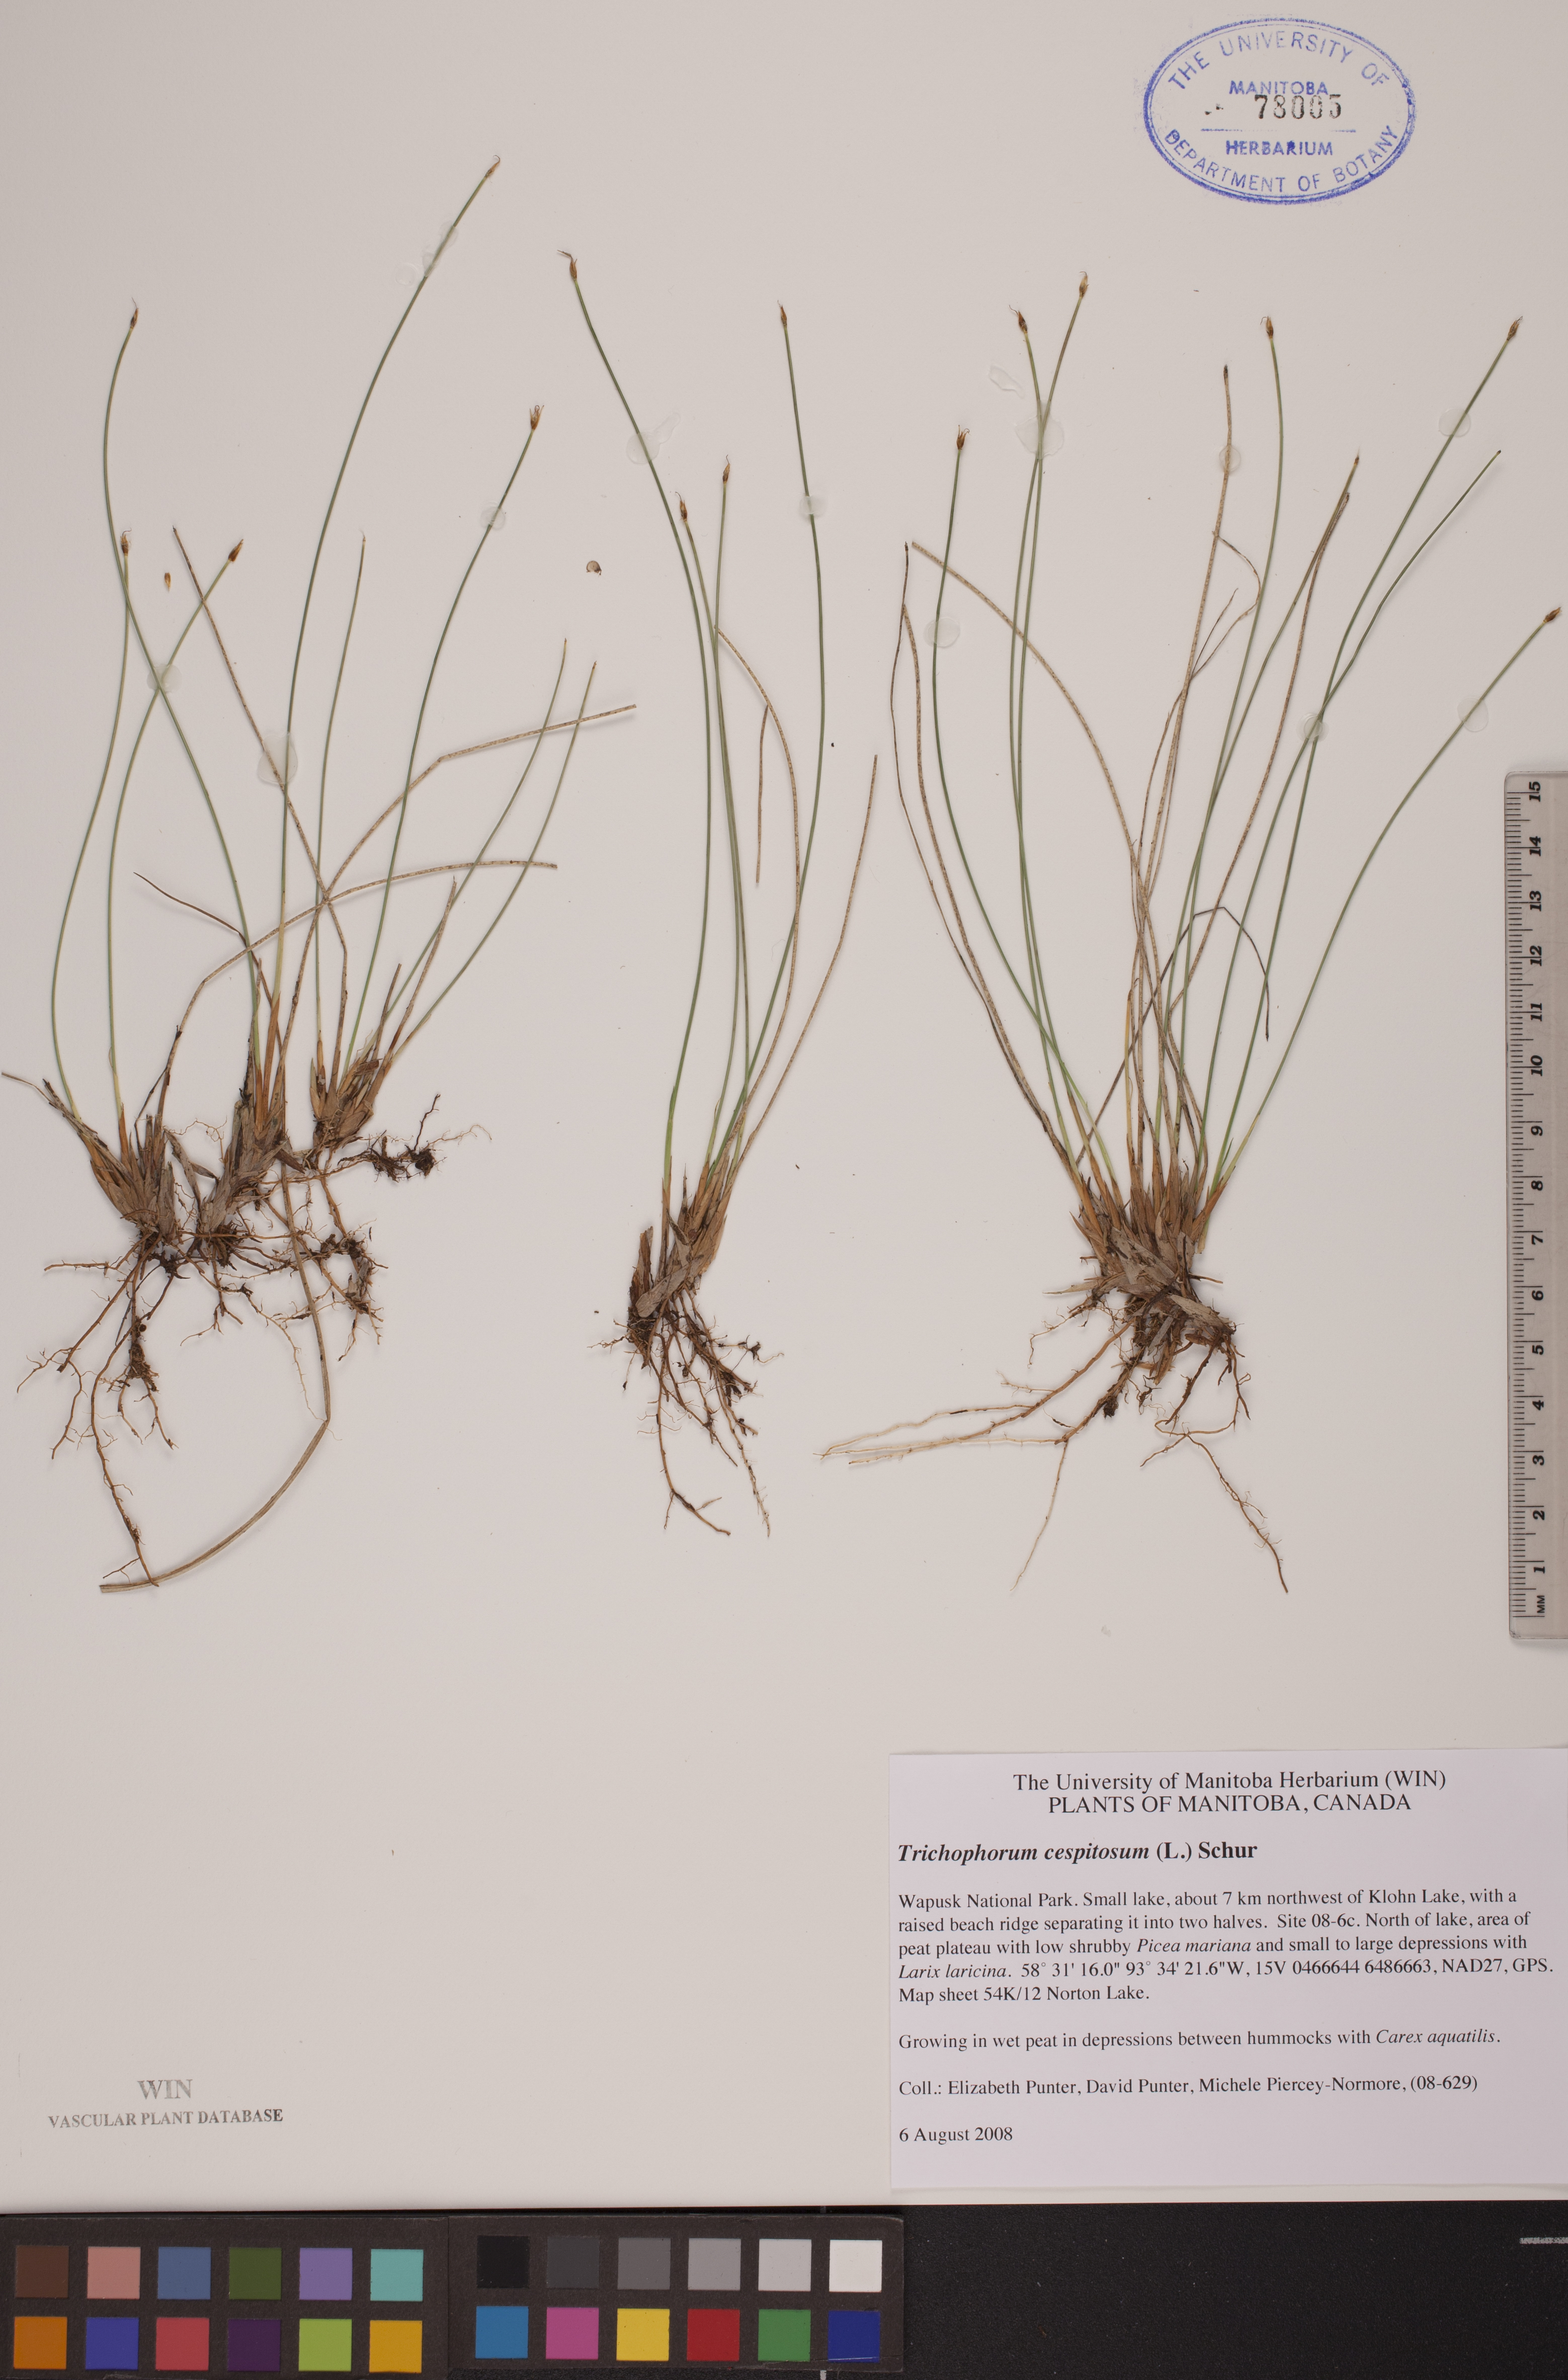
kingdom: Plantae
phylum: Tracheophyta
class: Liliopsida
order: Poales
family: Cyperaceae
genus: Trichophorum
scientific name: Trichophorum cespitosum
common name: Cespitose bulrush
